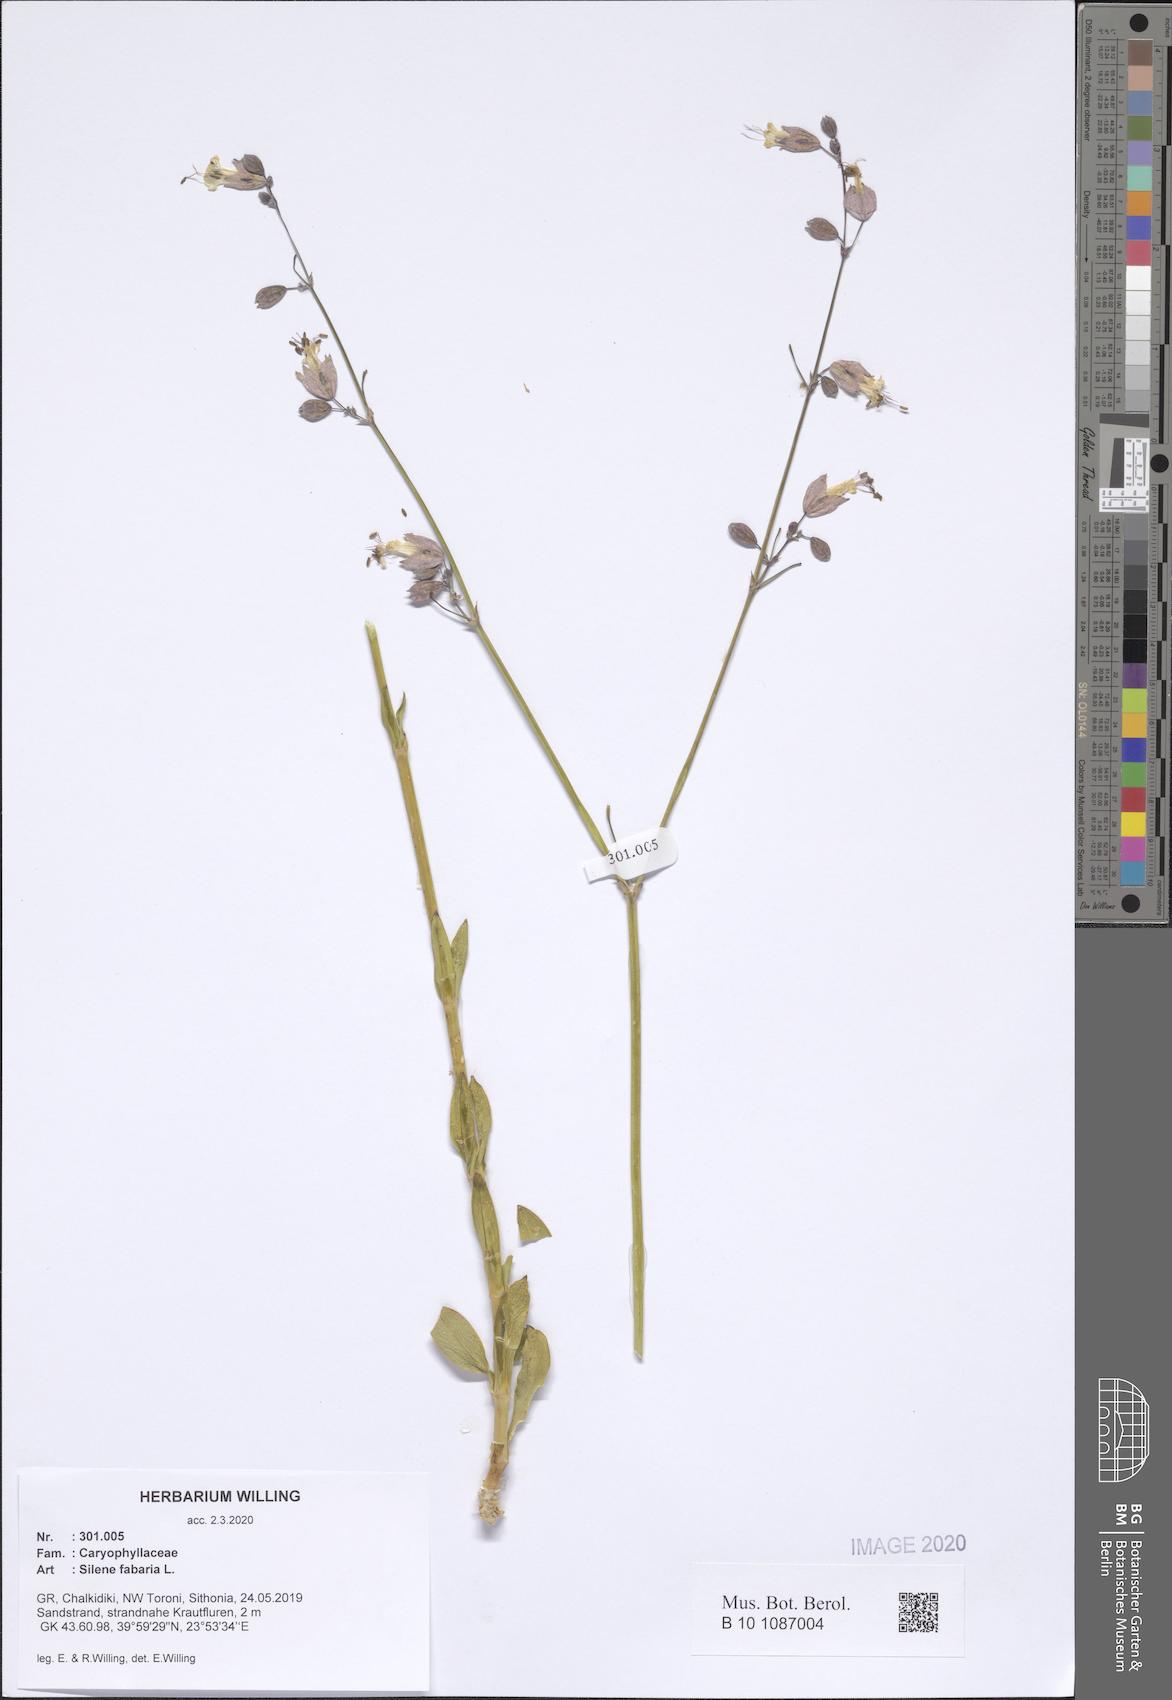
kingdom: Plantae
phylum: Tracheophyta
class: Magnoliopsida
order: Caryophyllales
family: Caryophyllaceae
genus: Silene
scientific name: Silene fabaria
